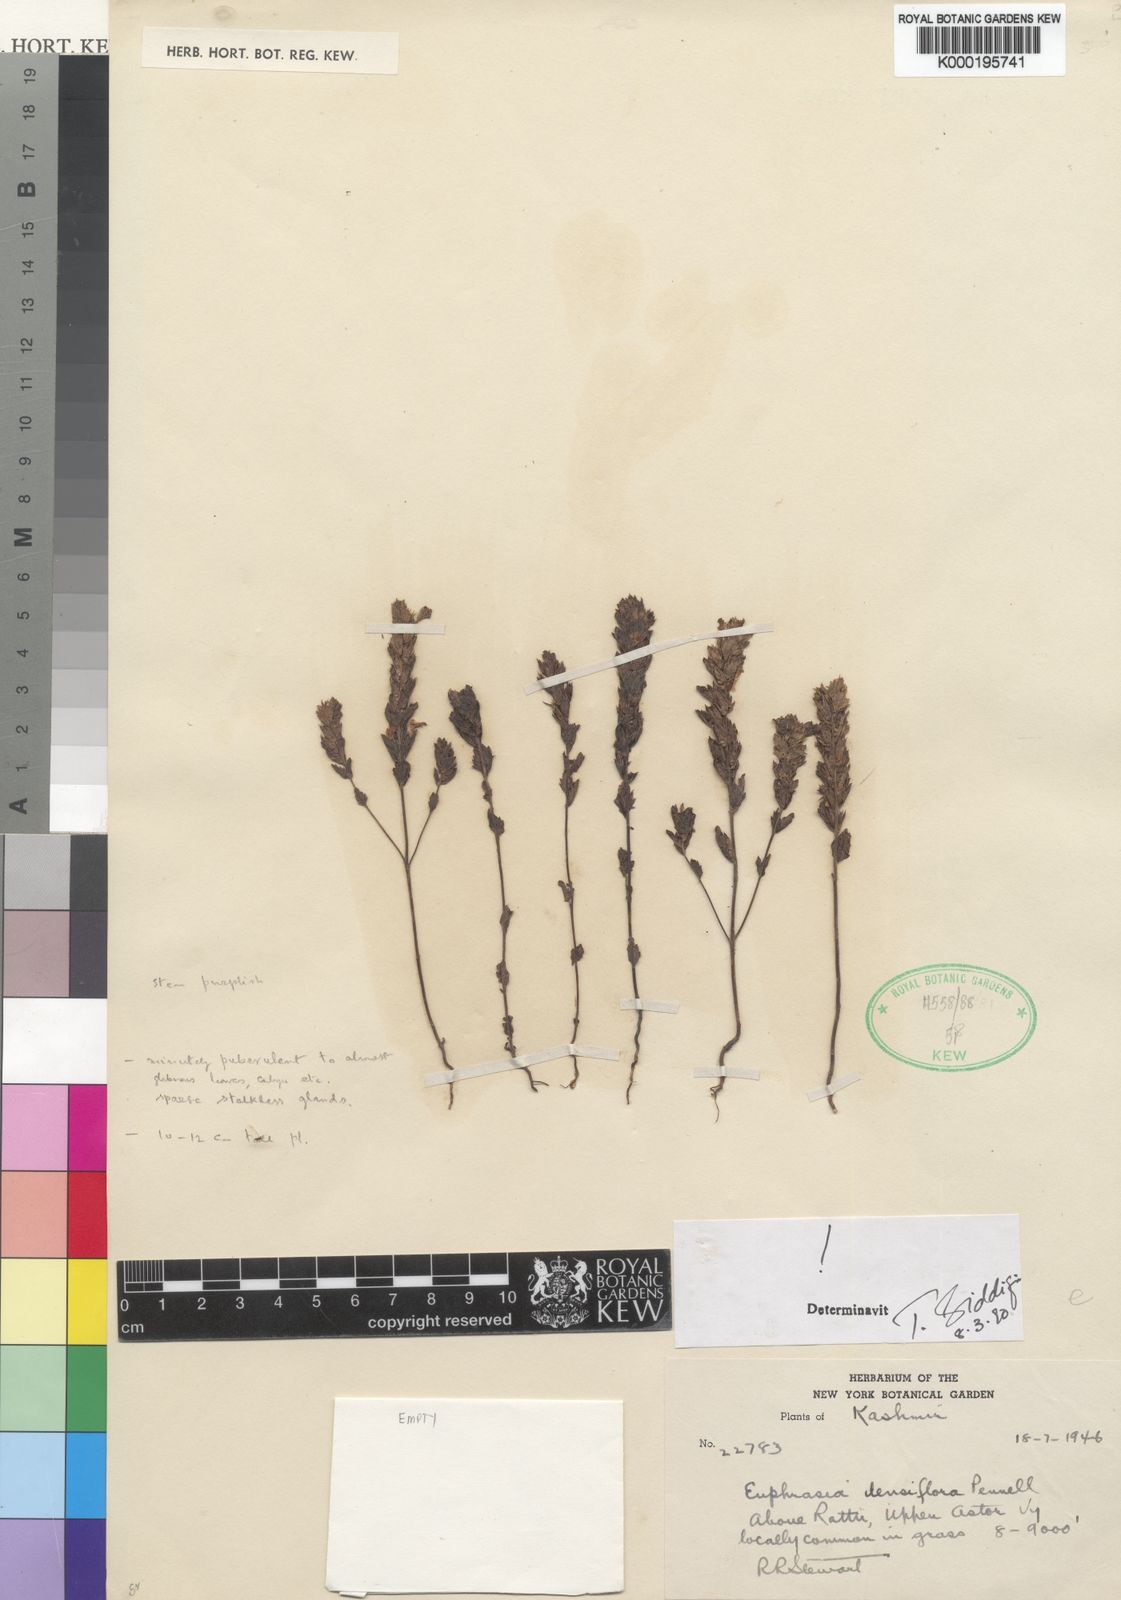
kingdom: Plantae
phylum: Tracheophyta
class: Magnoliopsida
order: Lamiales
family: Orobanchaceae
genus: Euphrasia
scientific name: Euphrasia densiflora
